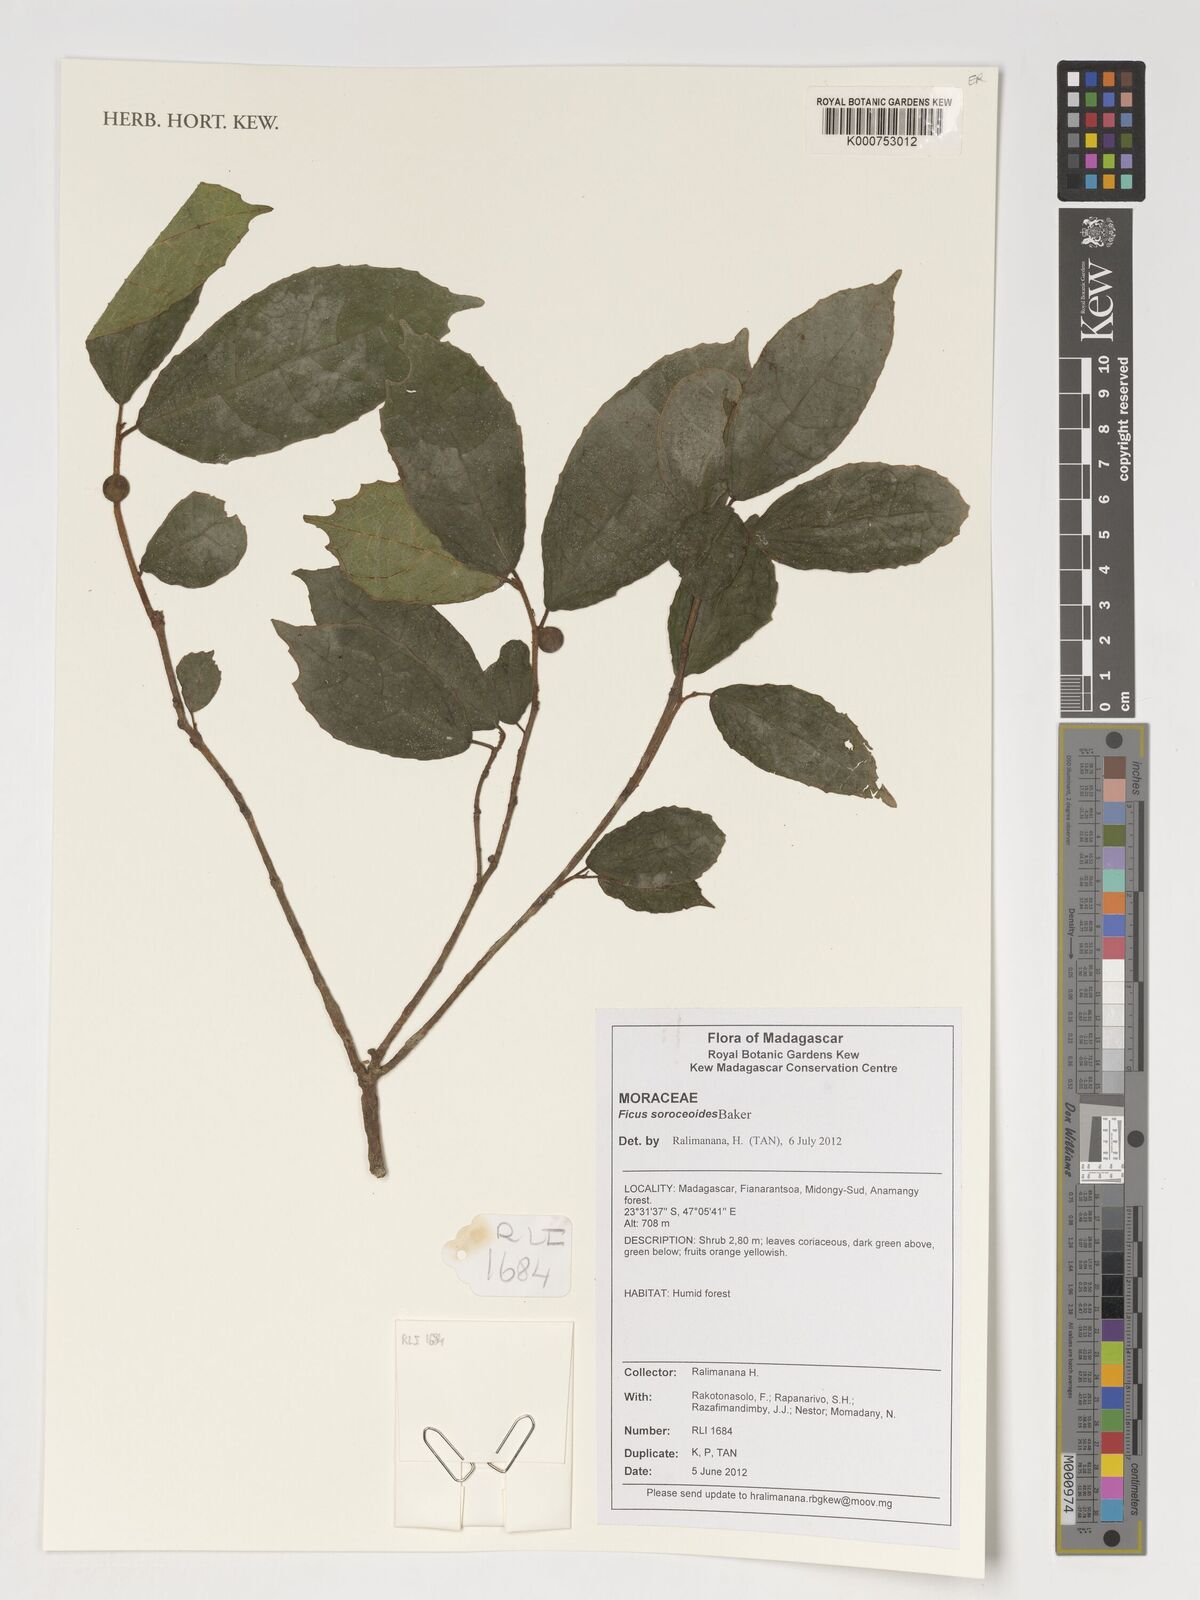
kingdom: Plantae
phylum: Tracheophyta
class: Magnoliopsida
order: Rosales
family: Moraceae
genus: Ficus
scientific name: Ficus politoria
